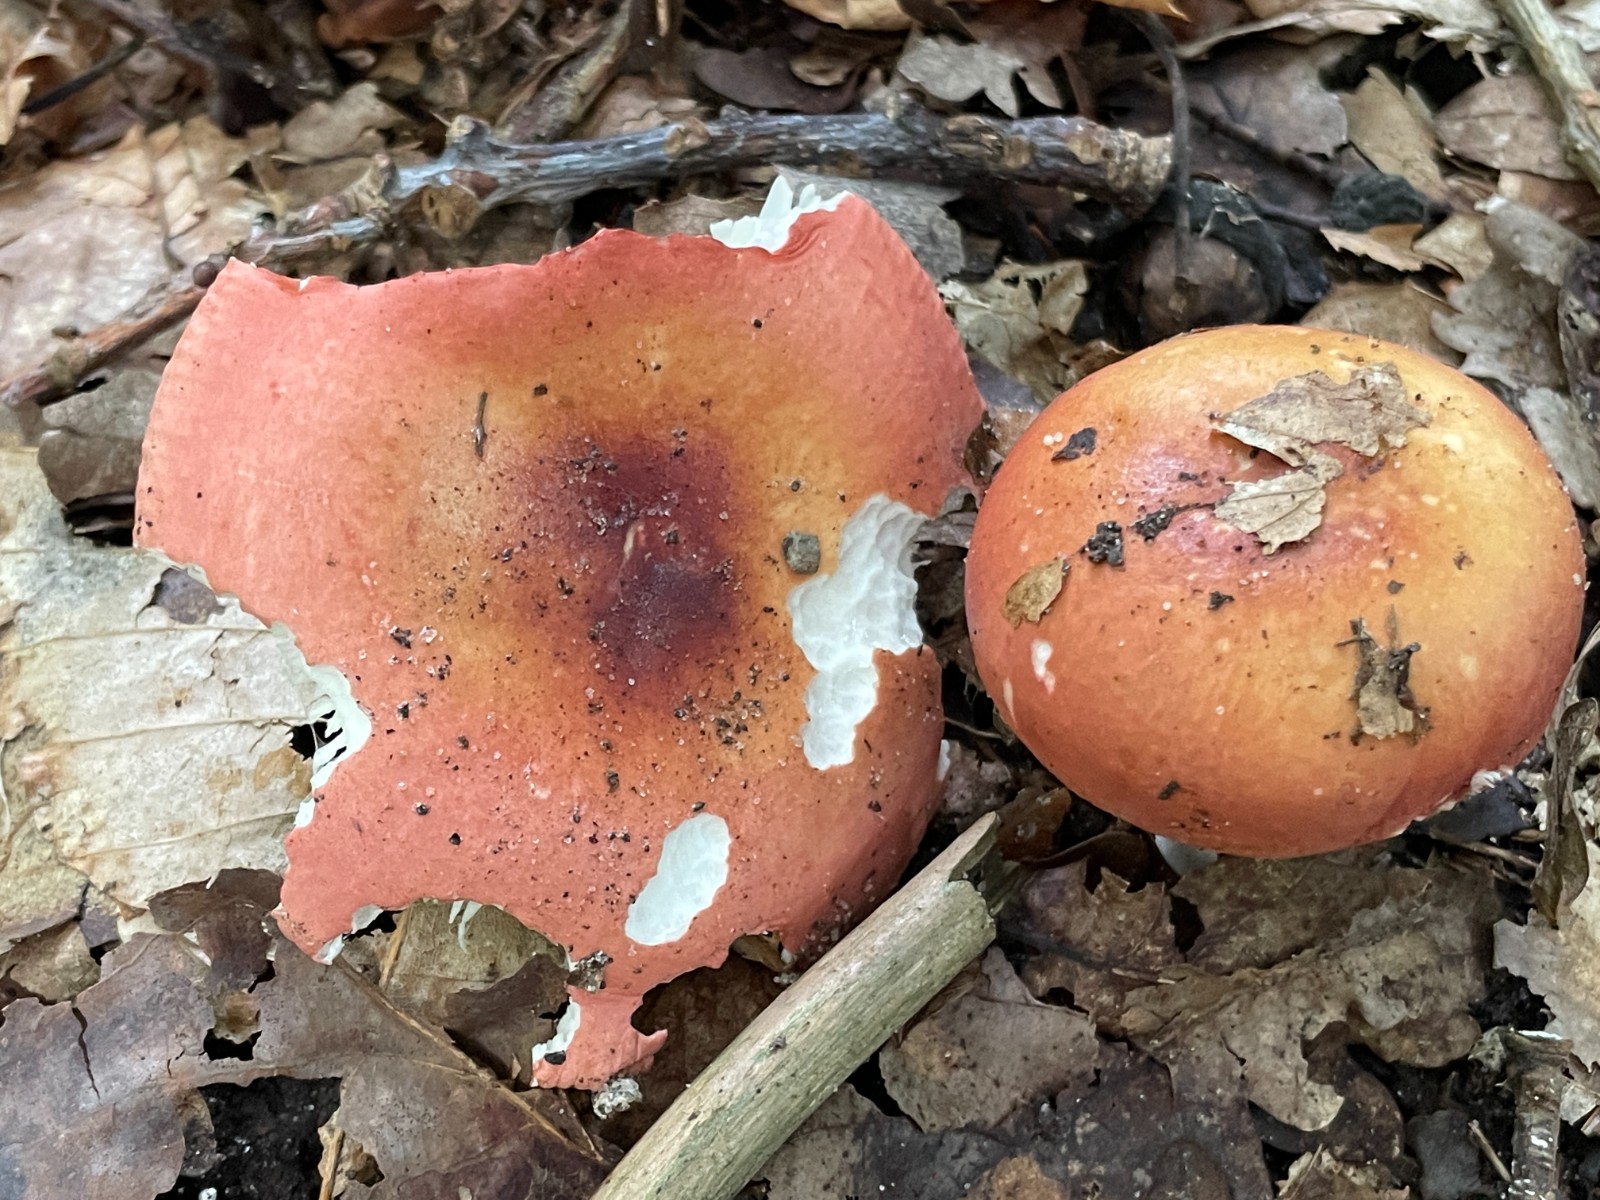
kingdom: Fungi
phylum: Basidiomycota
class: Agaricomycetes
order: Russulales
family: Russulaceae
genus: Russula
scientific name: Russula velenovskyi
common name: orangerød skørhat
